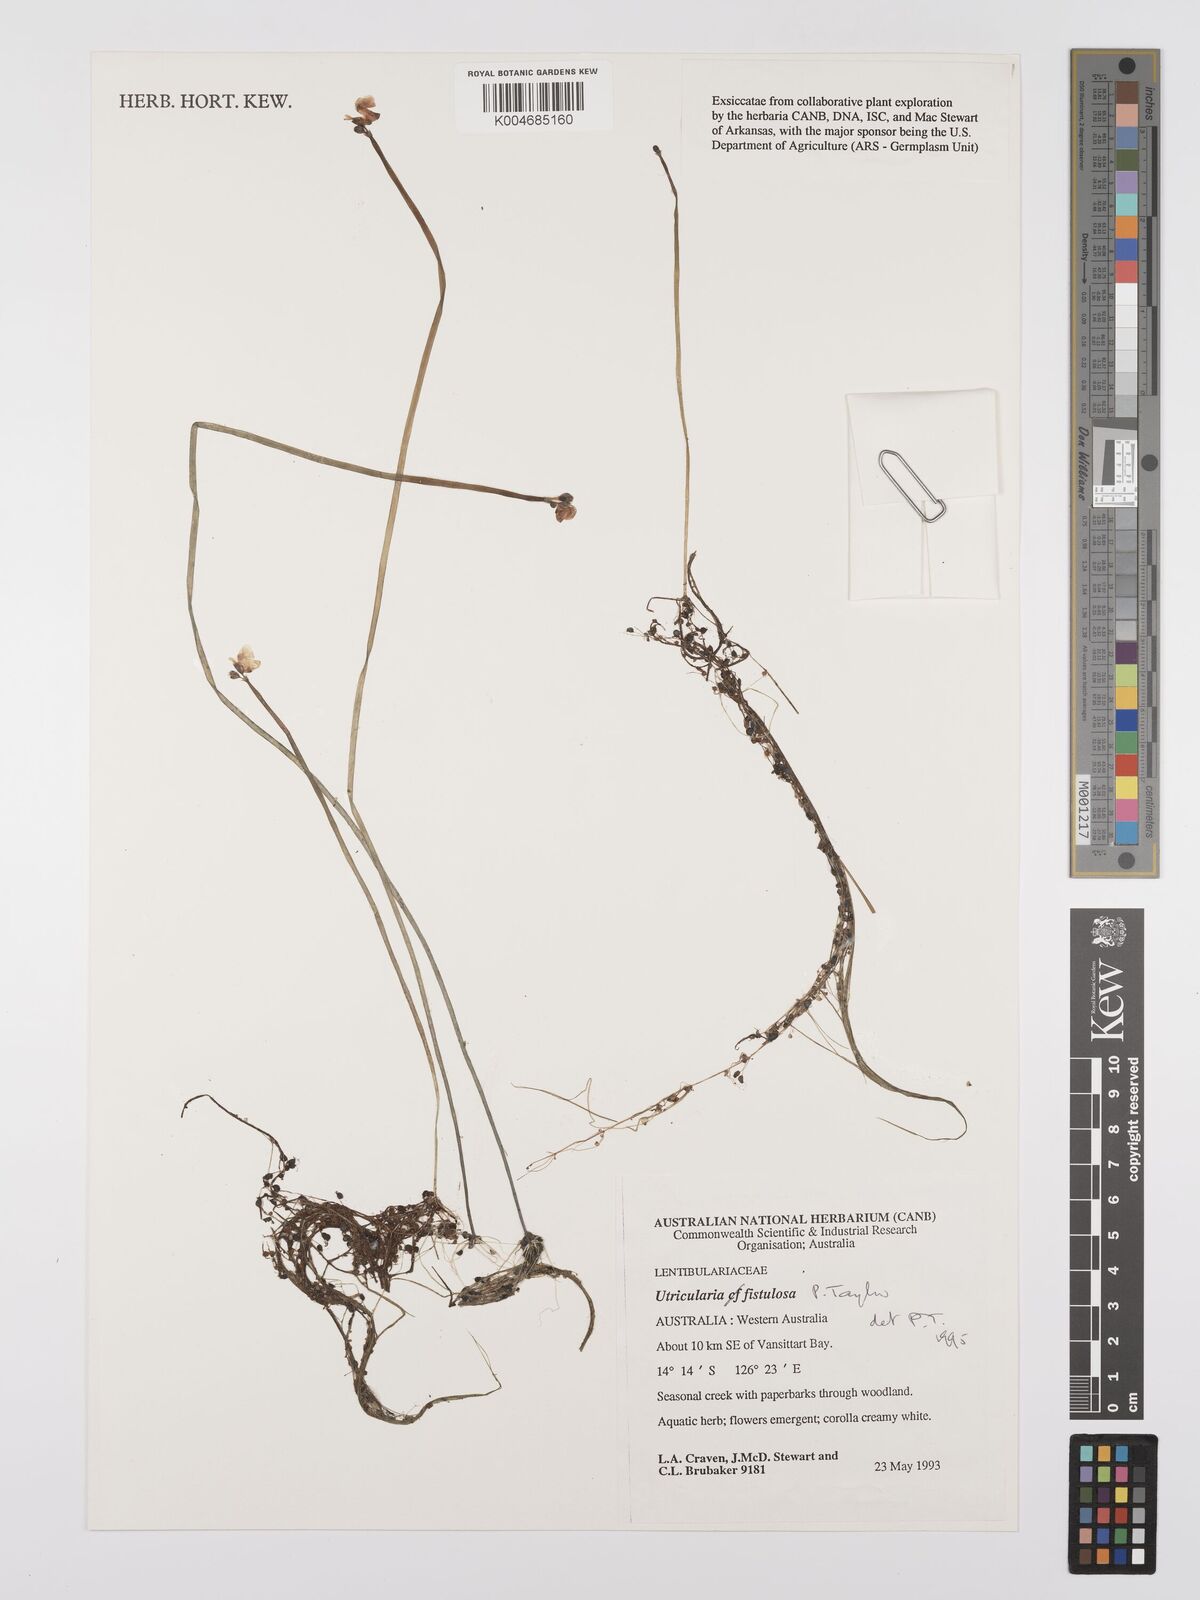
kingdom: Plantae
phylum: Tracheophyta
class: Magnoliopsida
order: Lamiales
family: Lentibulariaceae
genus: Utricularia
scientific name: Utricularia fistulosa
